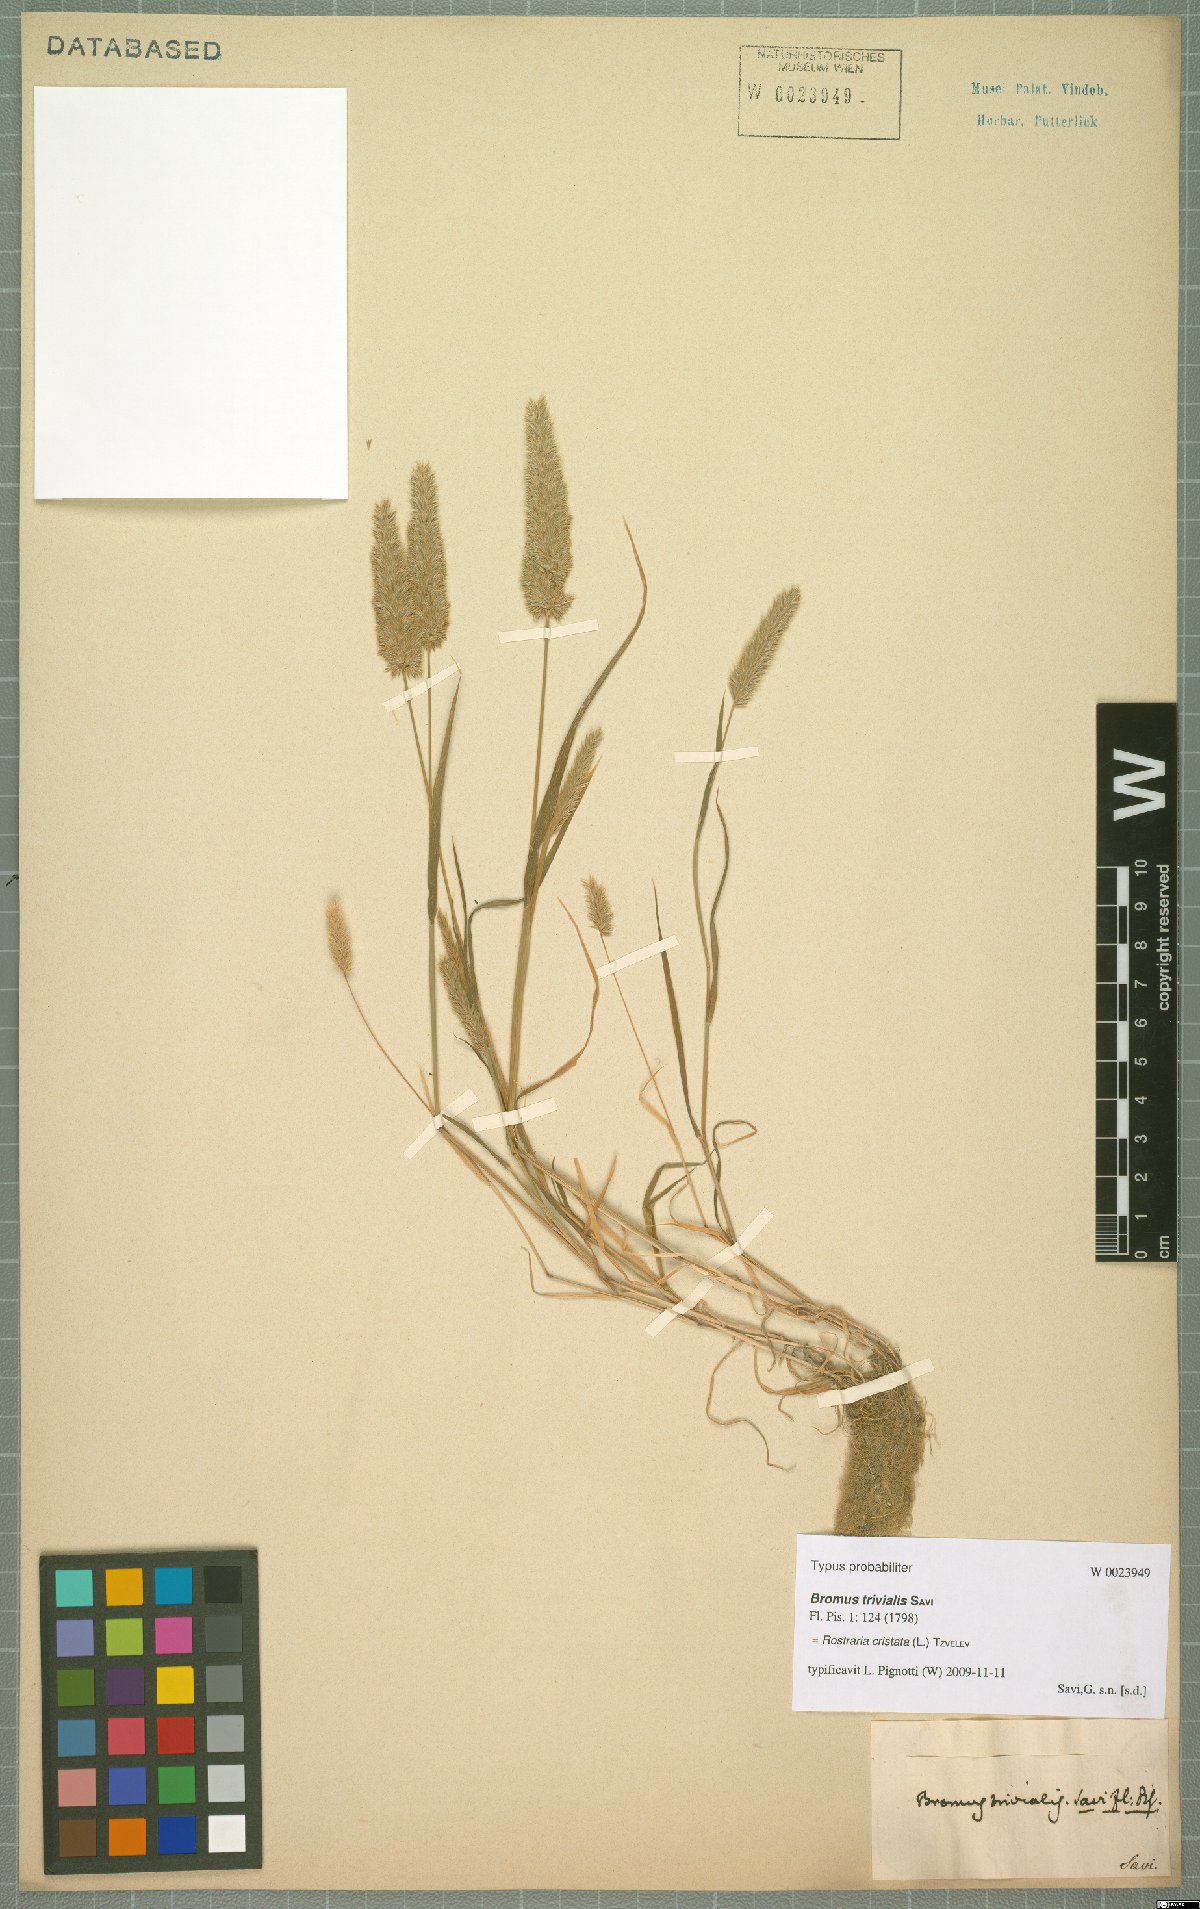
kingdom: Plantae
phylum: Tracheophyta
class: Liliopsida
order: Poales
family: Poaceae
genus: Rostraria
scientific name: Rostraria cristata
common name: Mediterranean hair-grass
